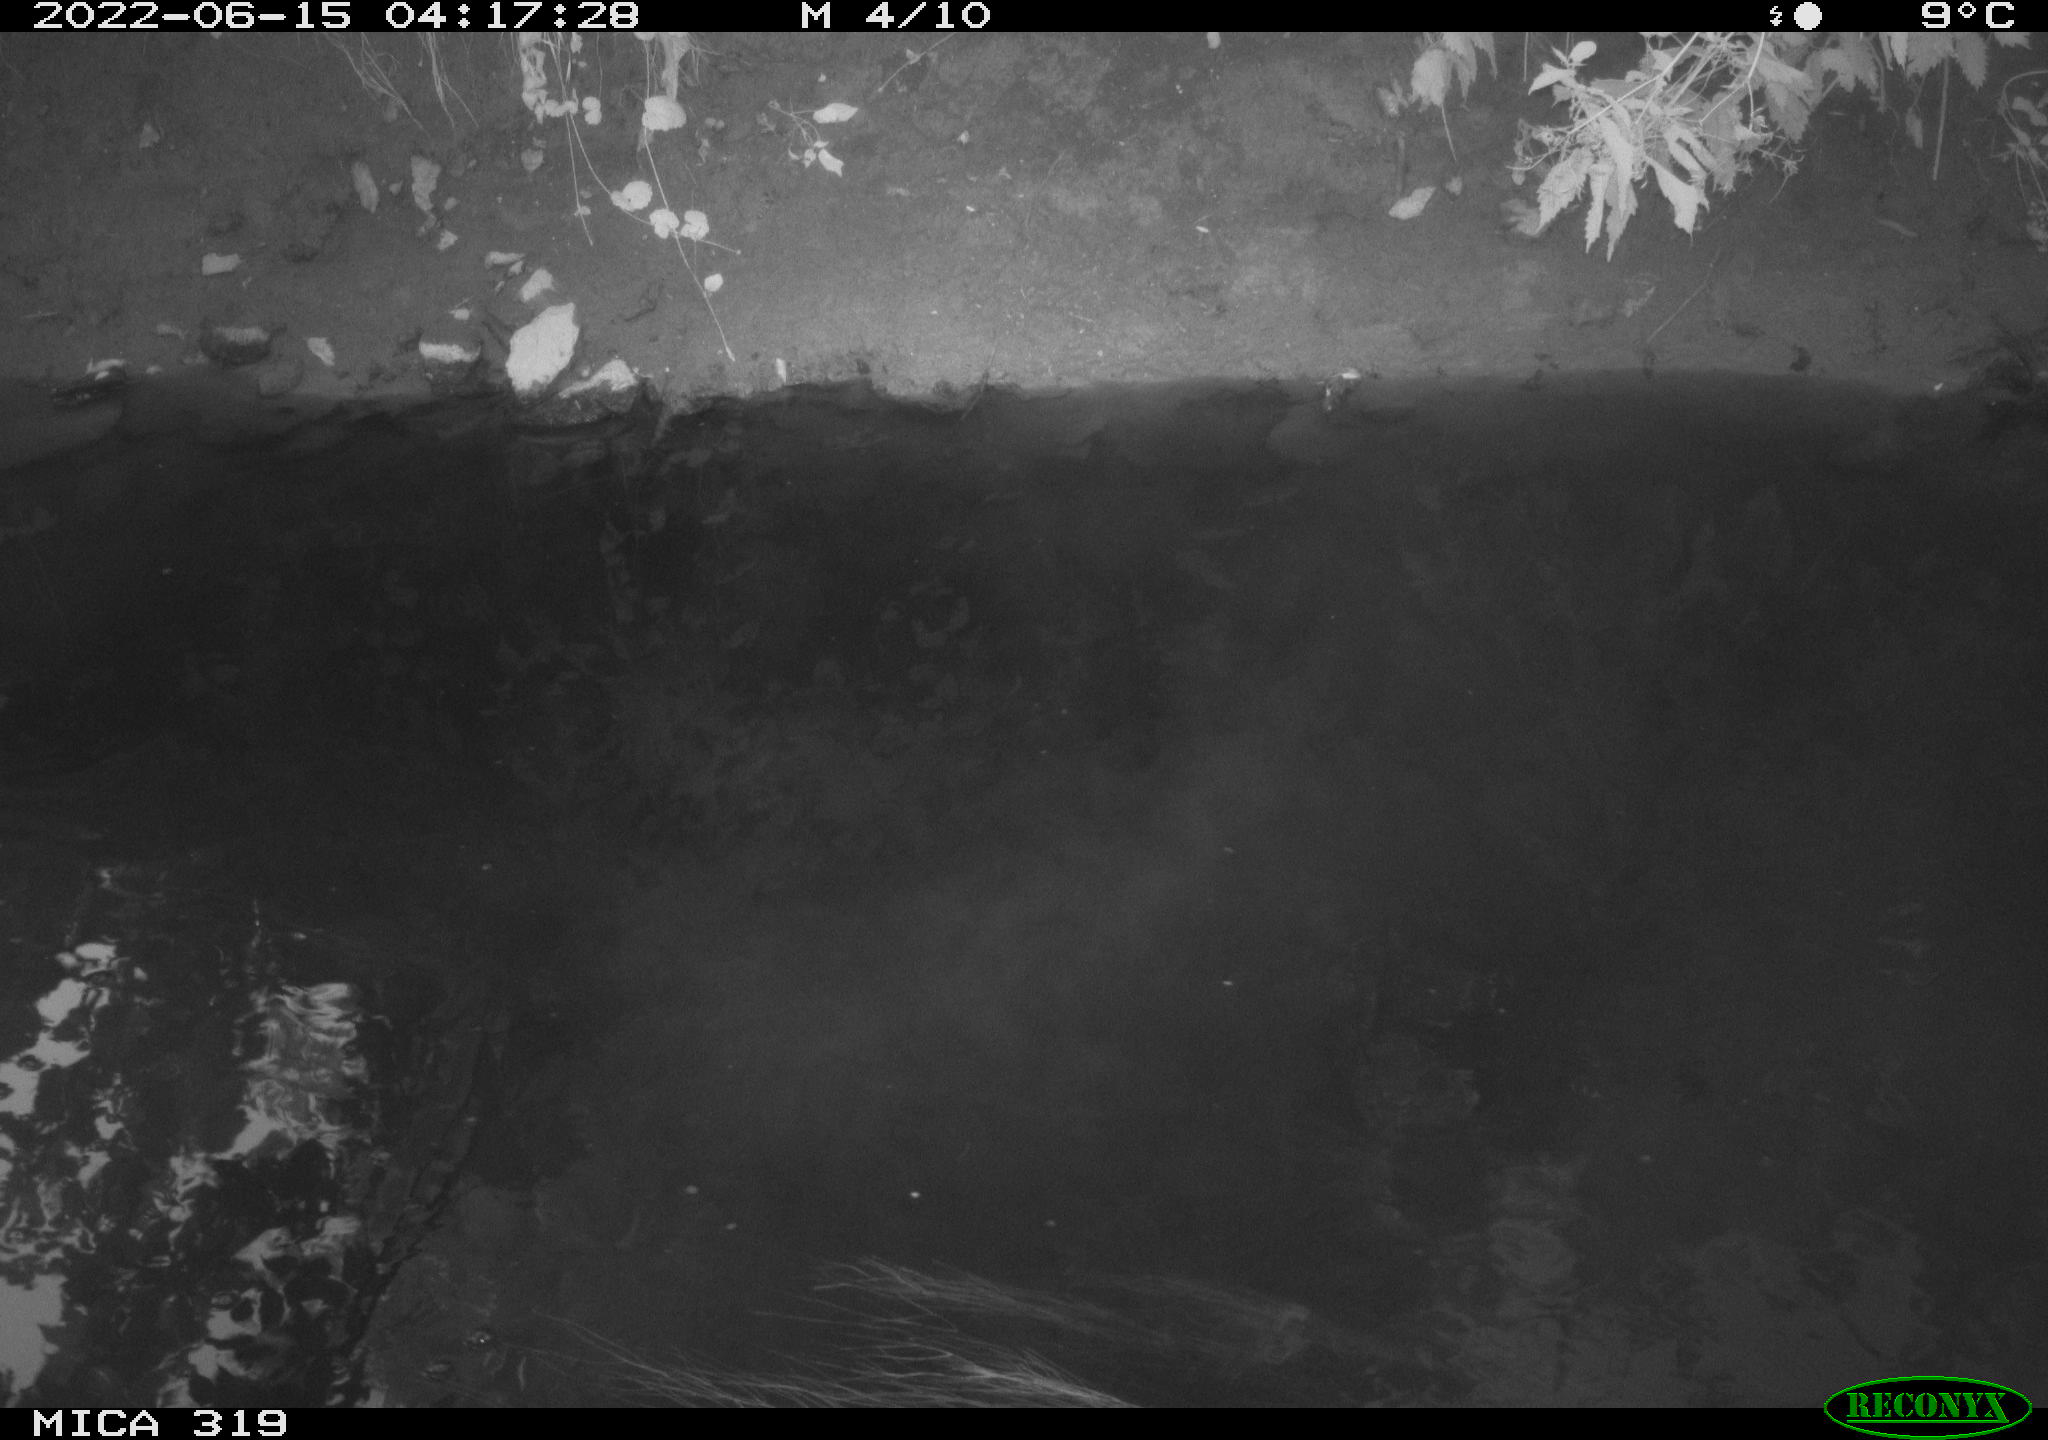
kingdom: Animalia
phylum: Chordata
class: Aves
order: Gruiformes
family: Rallidae
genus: Gallinula
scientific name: Gallinula chloropus
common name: Common moorhen
